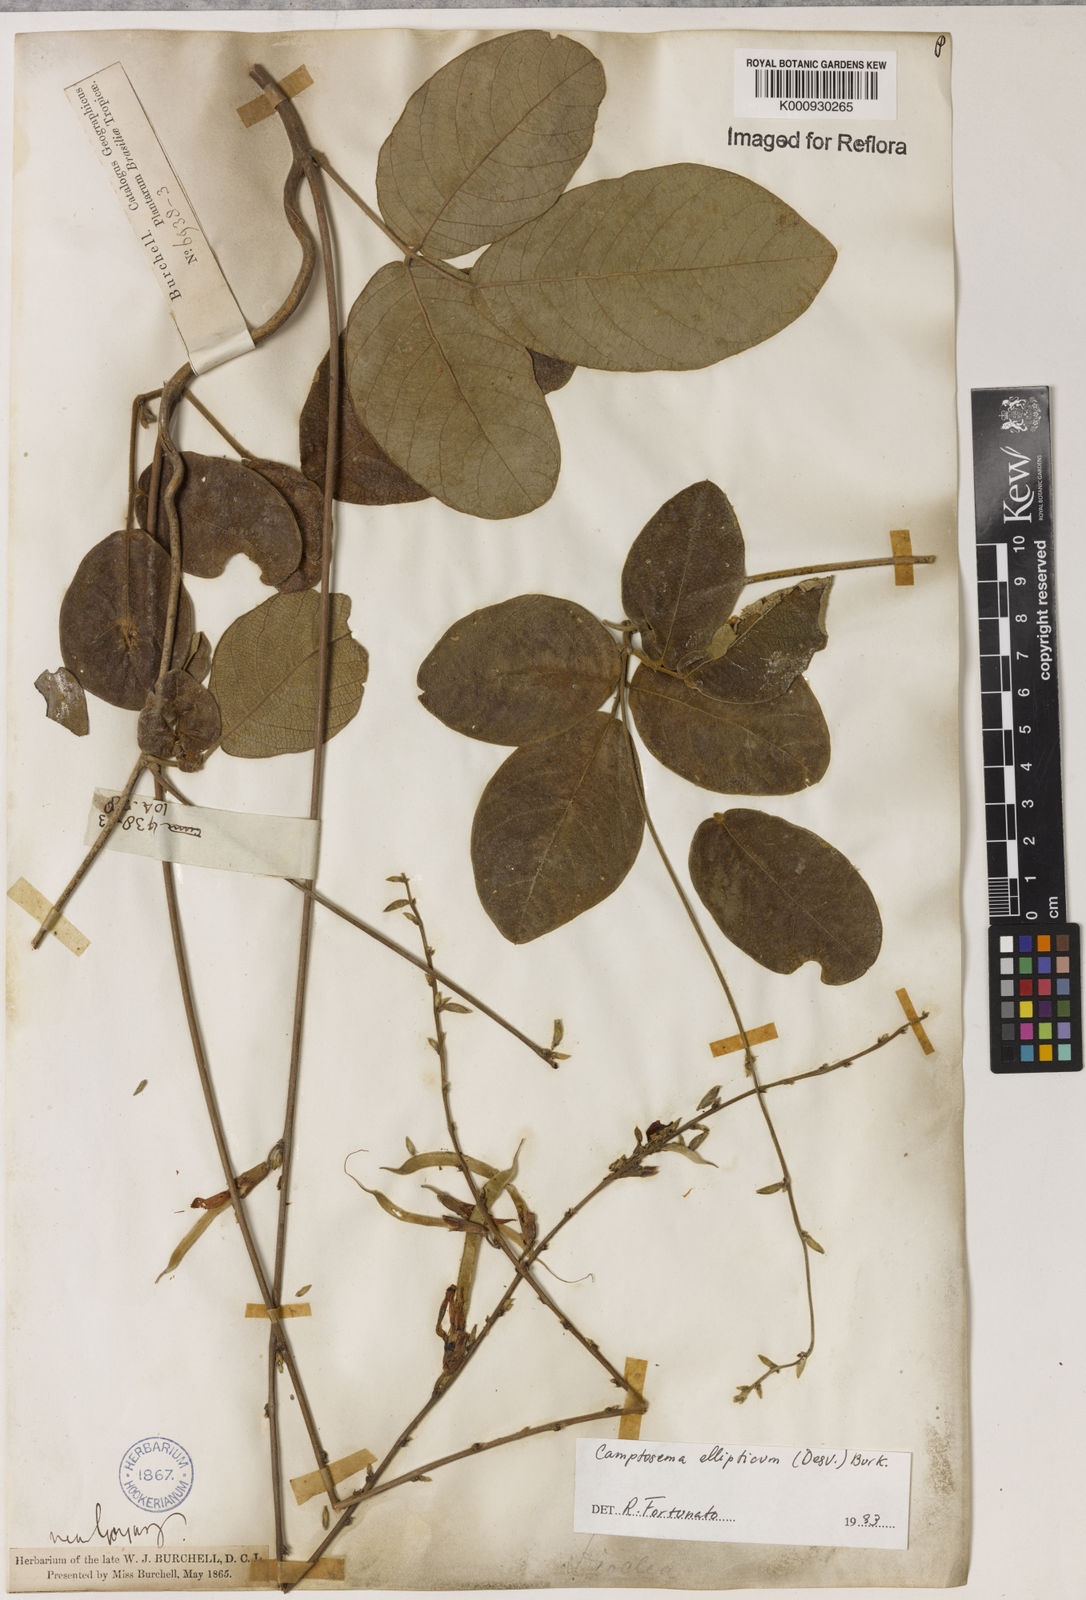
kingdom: Plantae
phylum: Tracheophyta
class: Magnoliopsida
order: Fabales
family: Fabaceae
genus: Camptosema
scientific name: Camptosema
